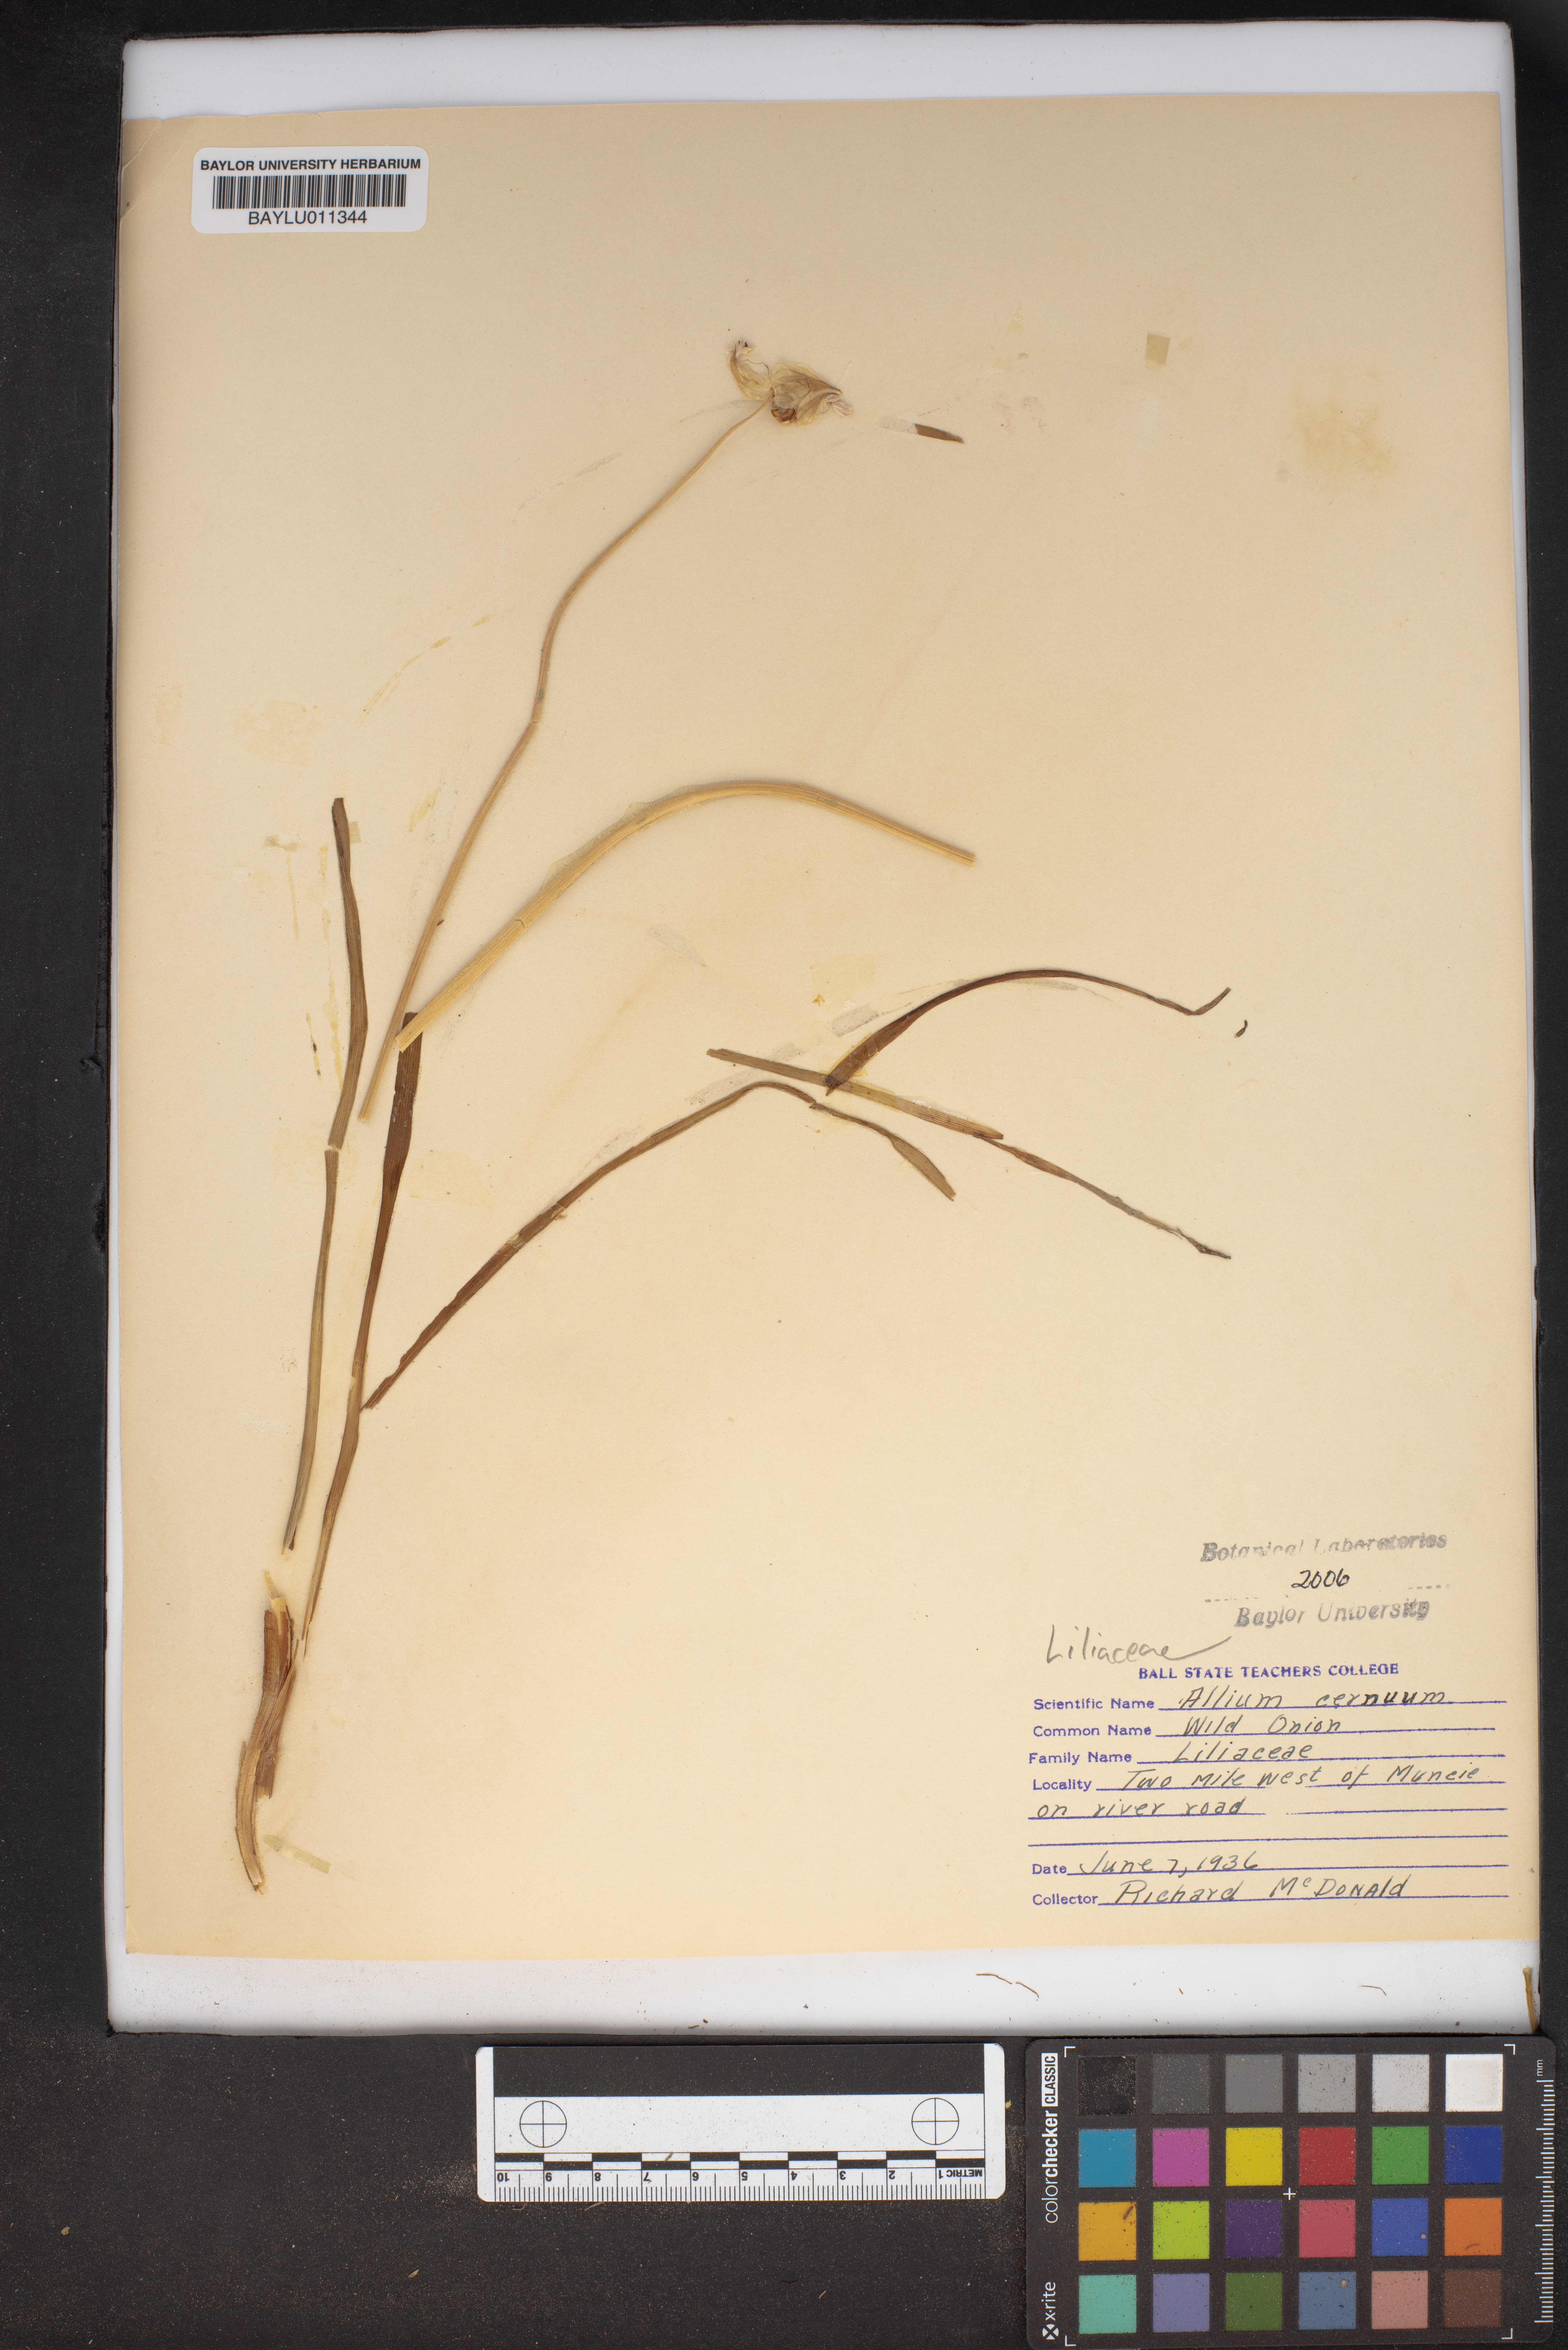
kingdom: Plantae
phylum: Tracheophyta
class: Liliopsida
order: Asparagales
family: Amaryllidaceae
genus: Allium
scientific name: Allium cernuum
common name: Nodding onion
